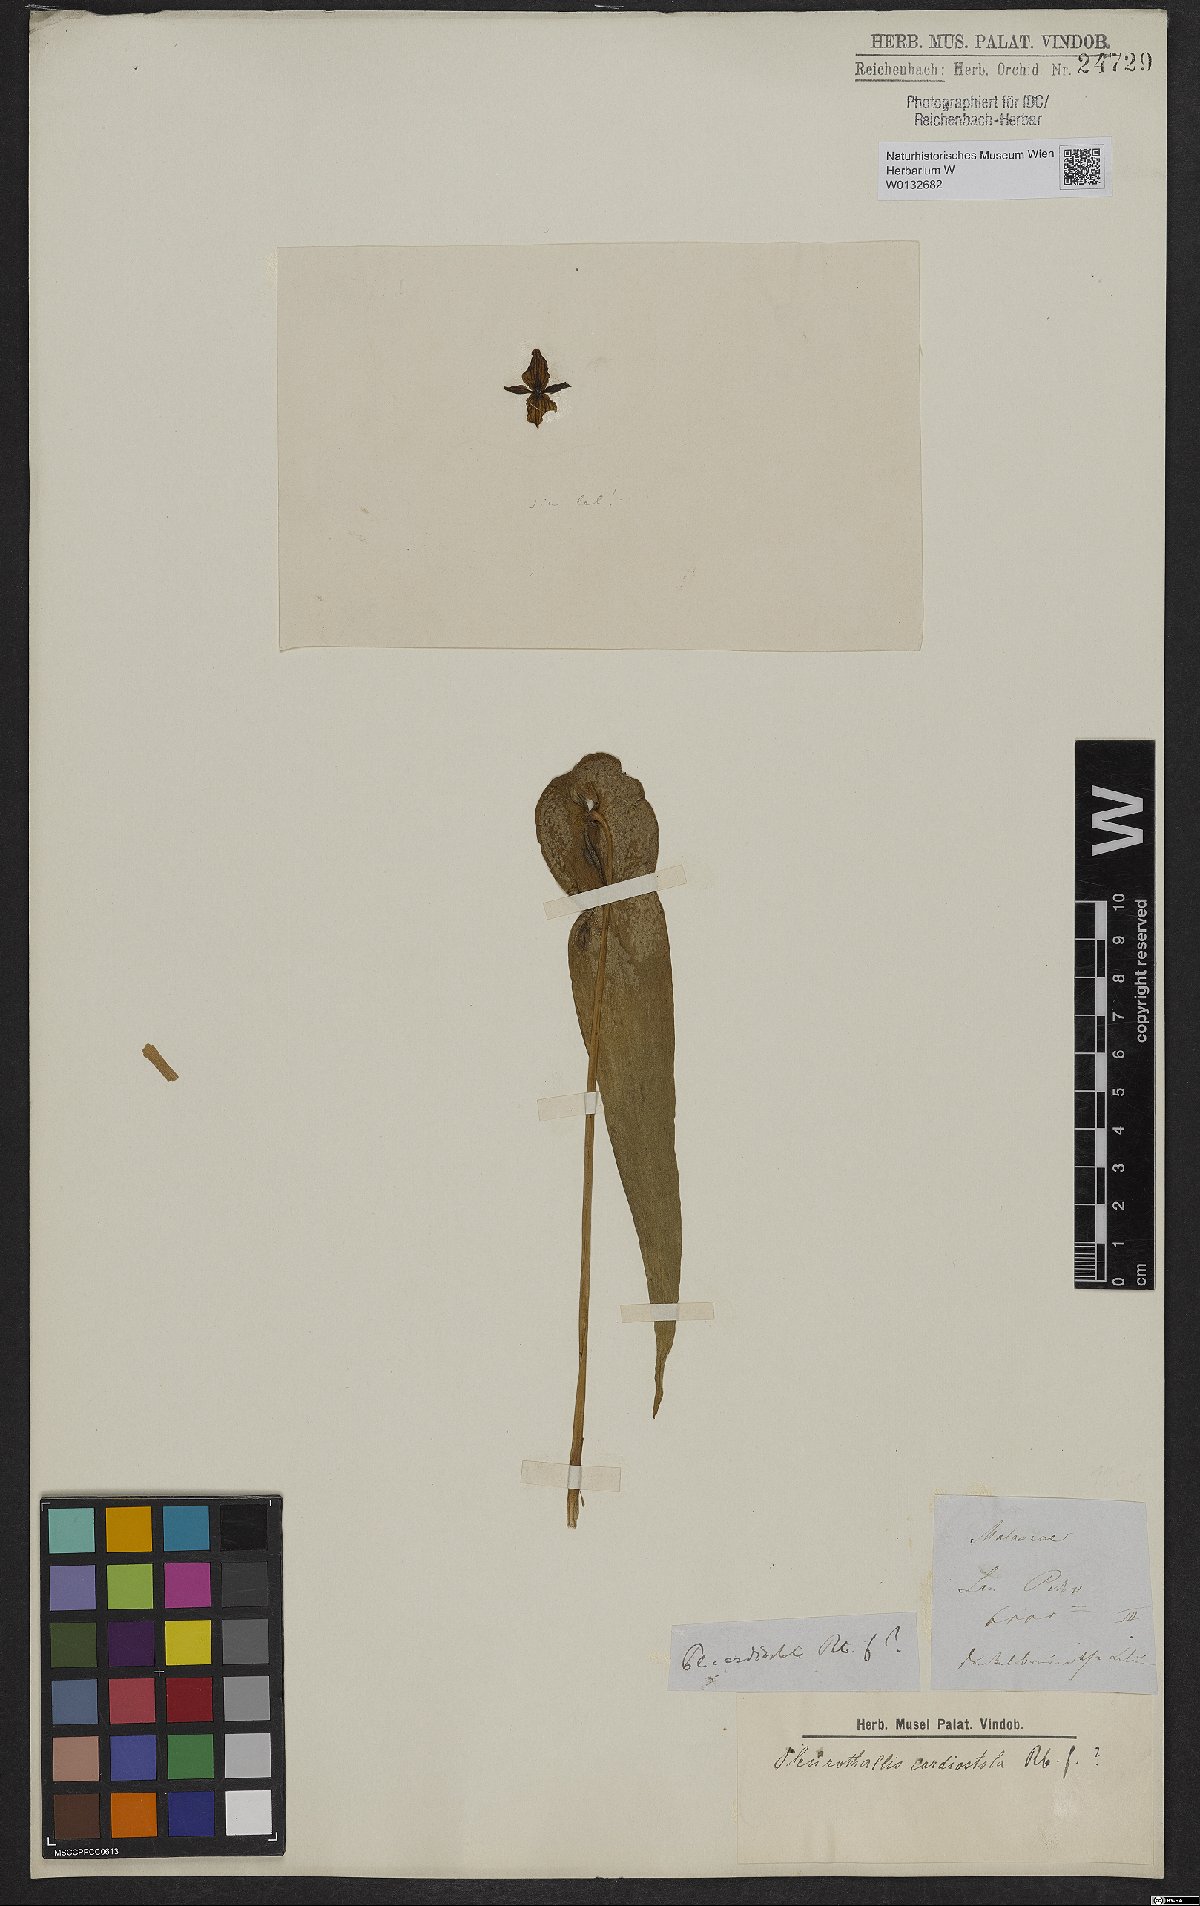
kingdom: Plantae
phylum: Tracheophyta
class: Liliopsida
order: Asparagales
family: Orchidaceae
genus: Pleurothallis
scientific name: Pleurothallis cardiostola
